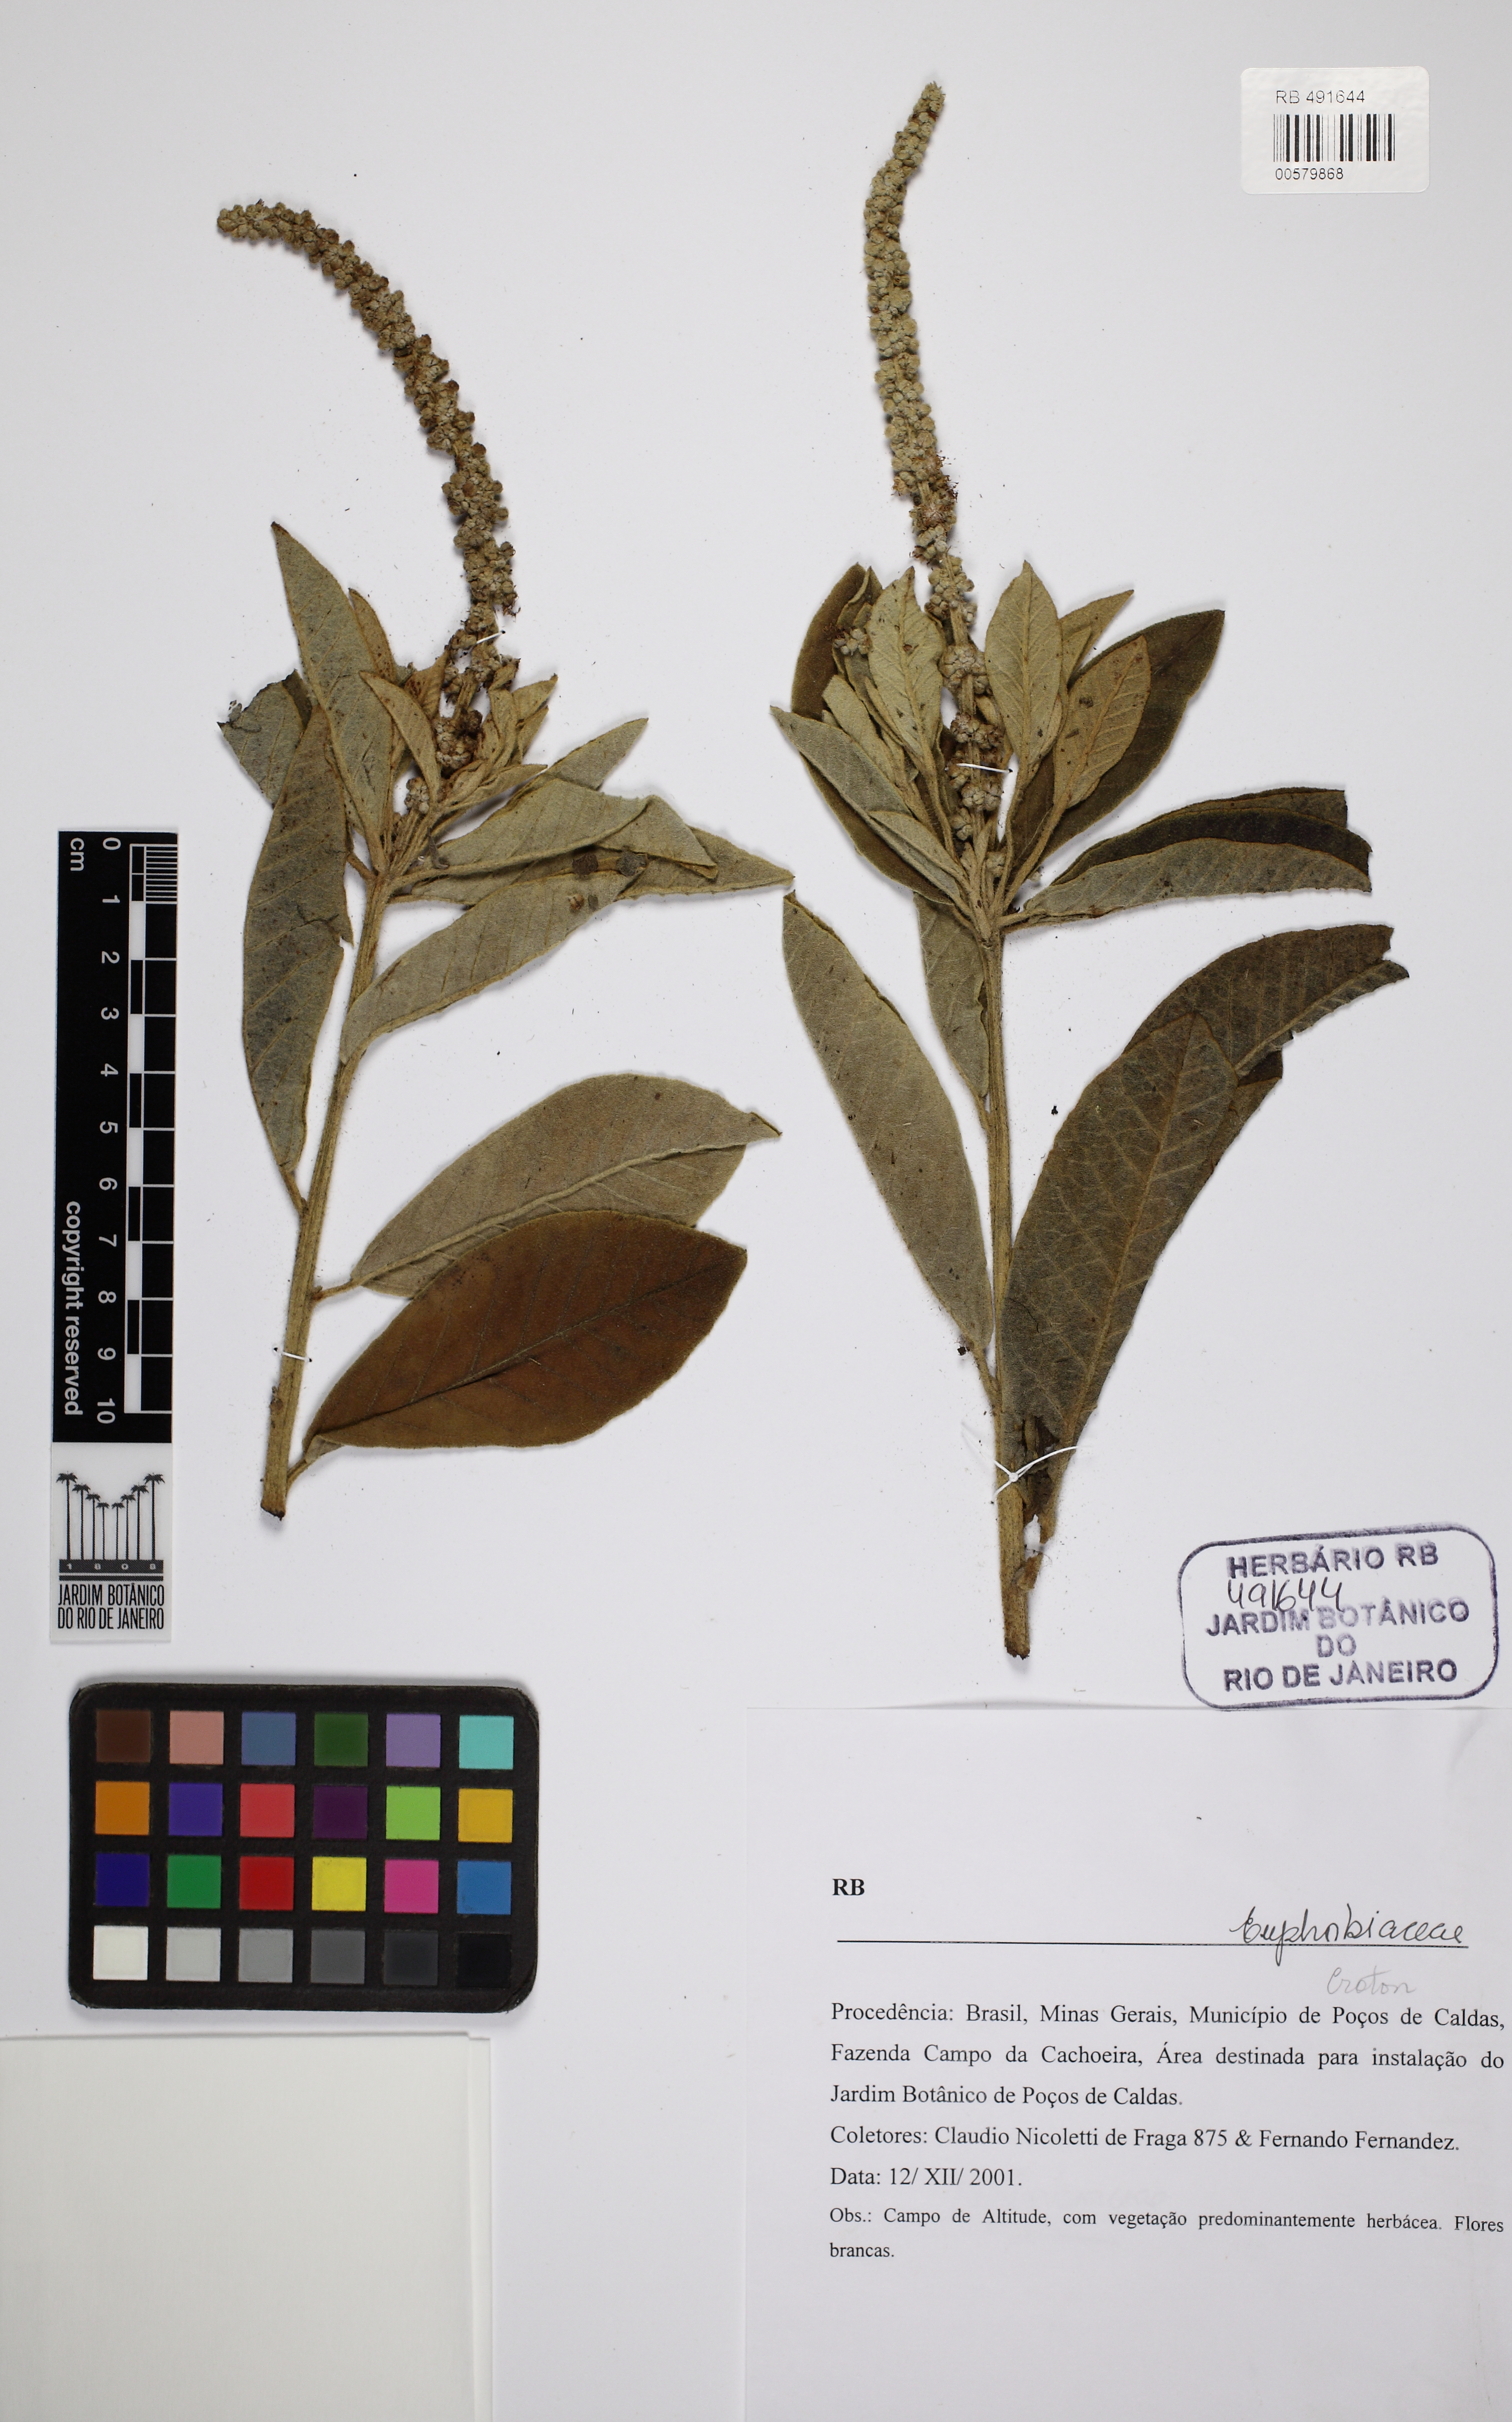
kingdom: Plantae
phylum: Tracheophyta
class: Magnoliopsida
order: Malpighiales
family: Euphorbiaceae
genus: Croton
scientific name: Croton
